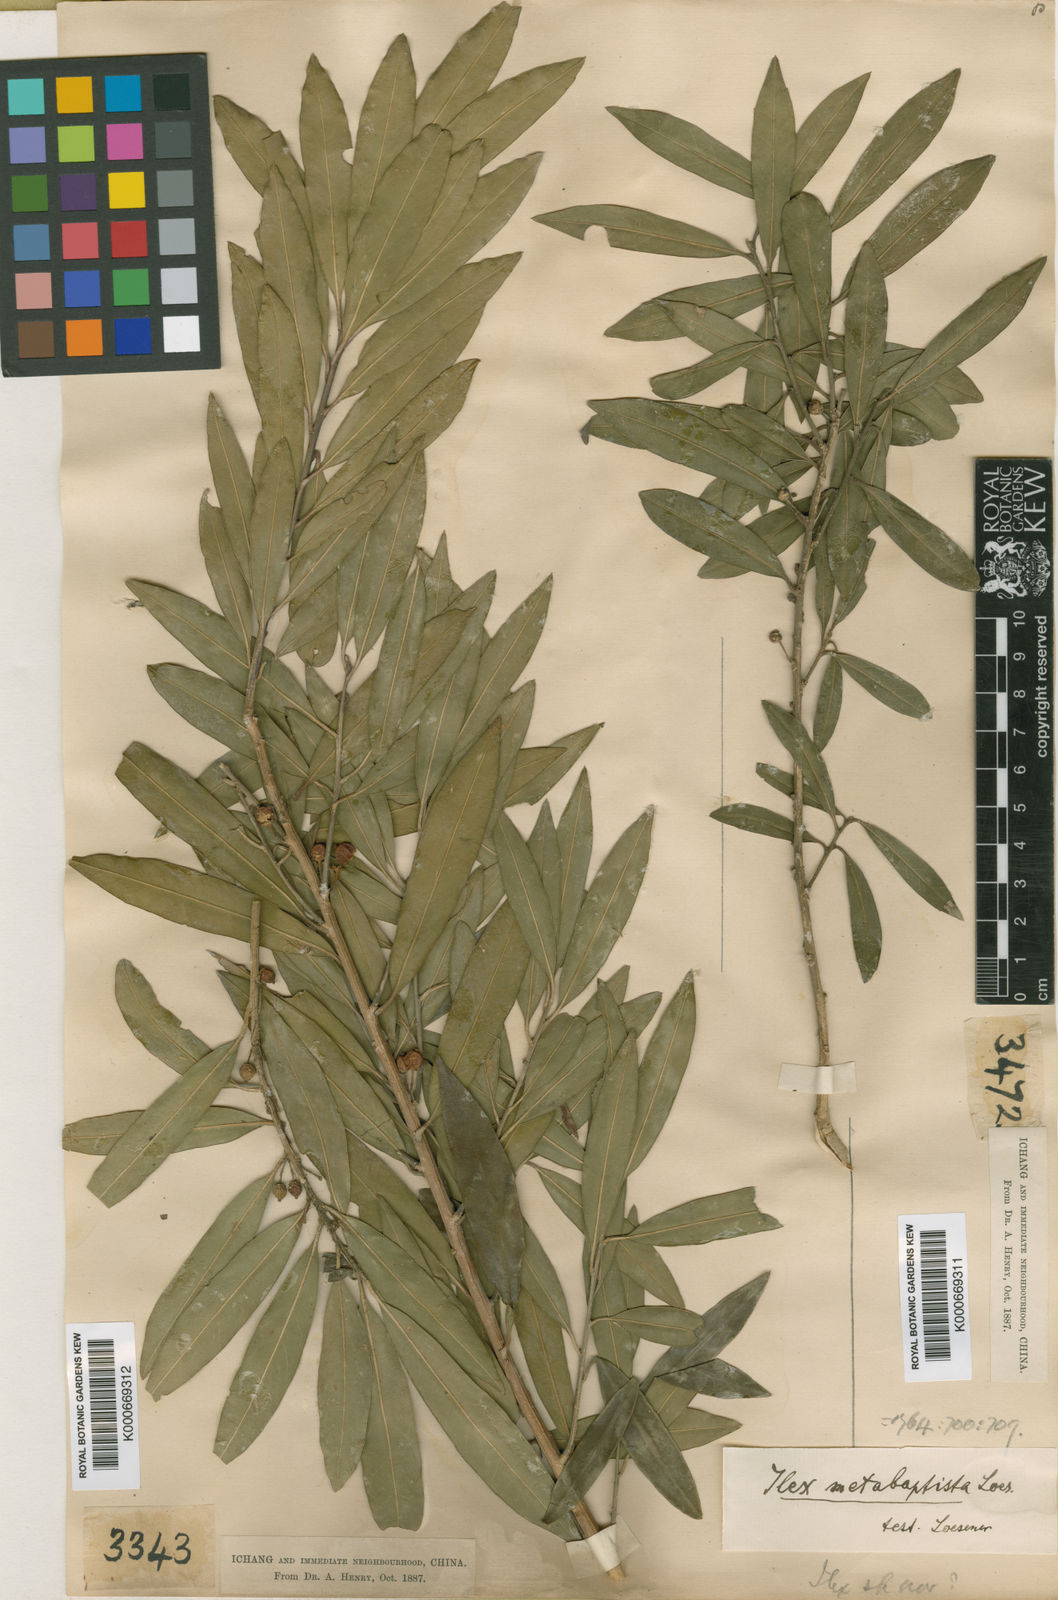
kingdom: Plantae
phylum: Tracheophyta
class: Magnoliopsida
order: Aquifoliales
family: Aquifoliaceae
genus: Ilex
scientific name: Ilex metabaptista
